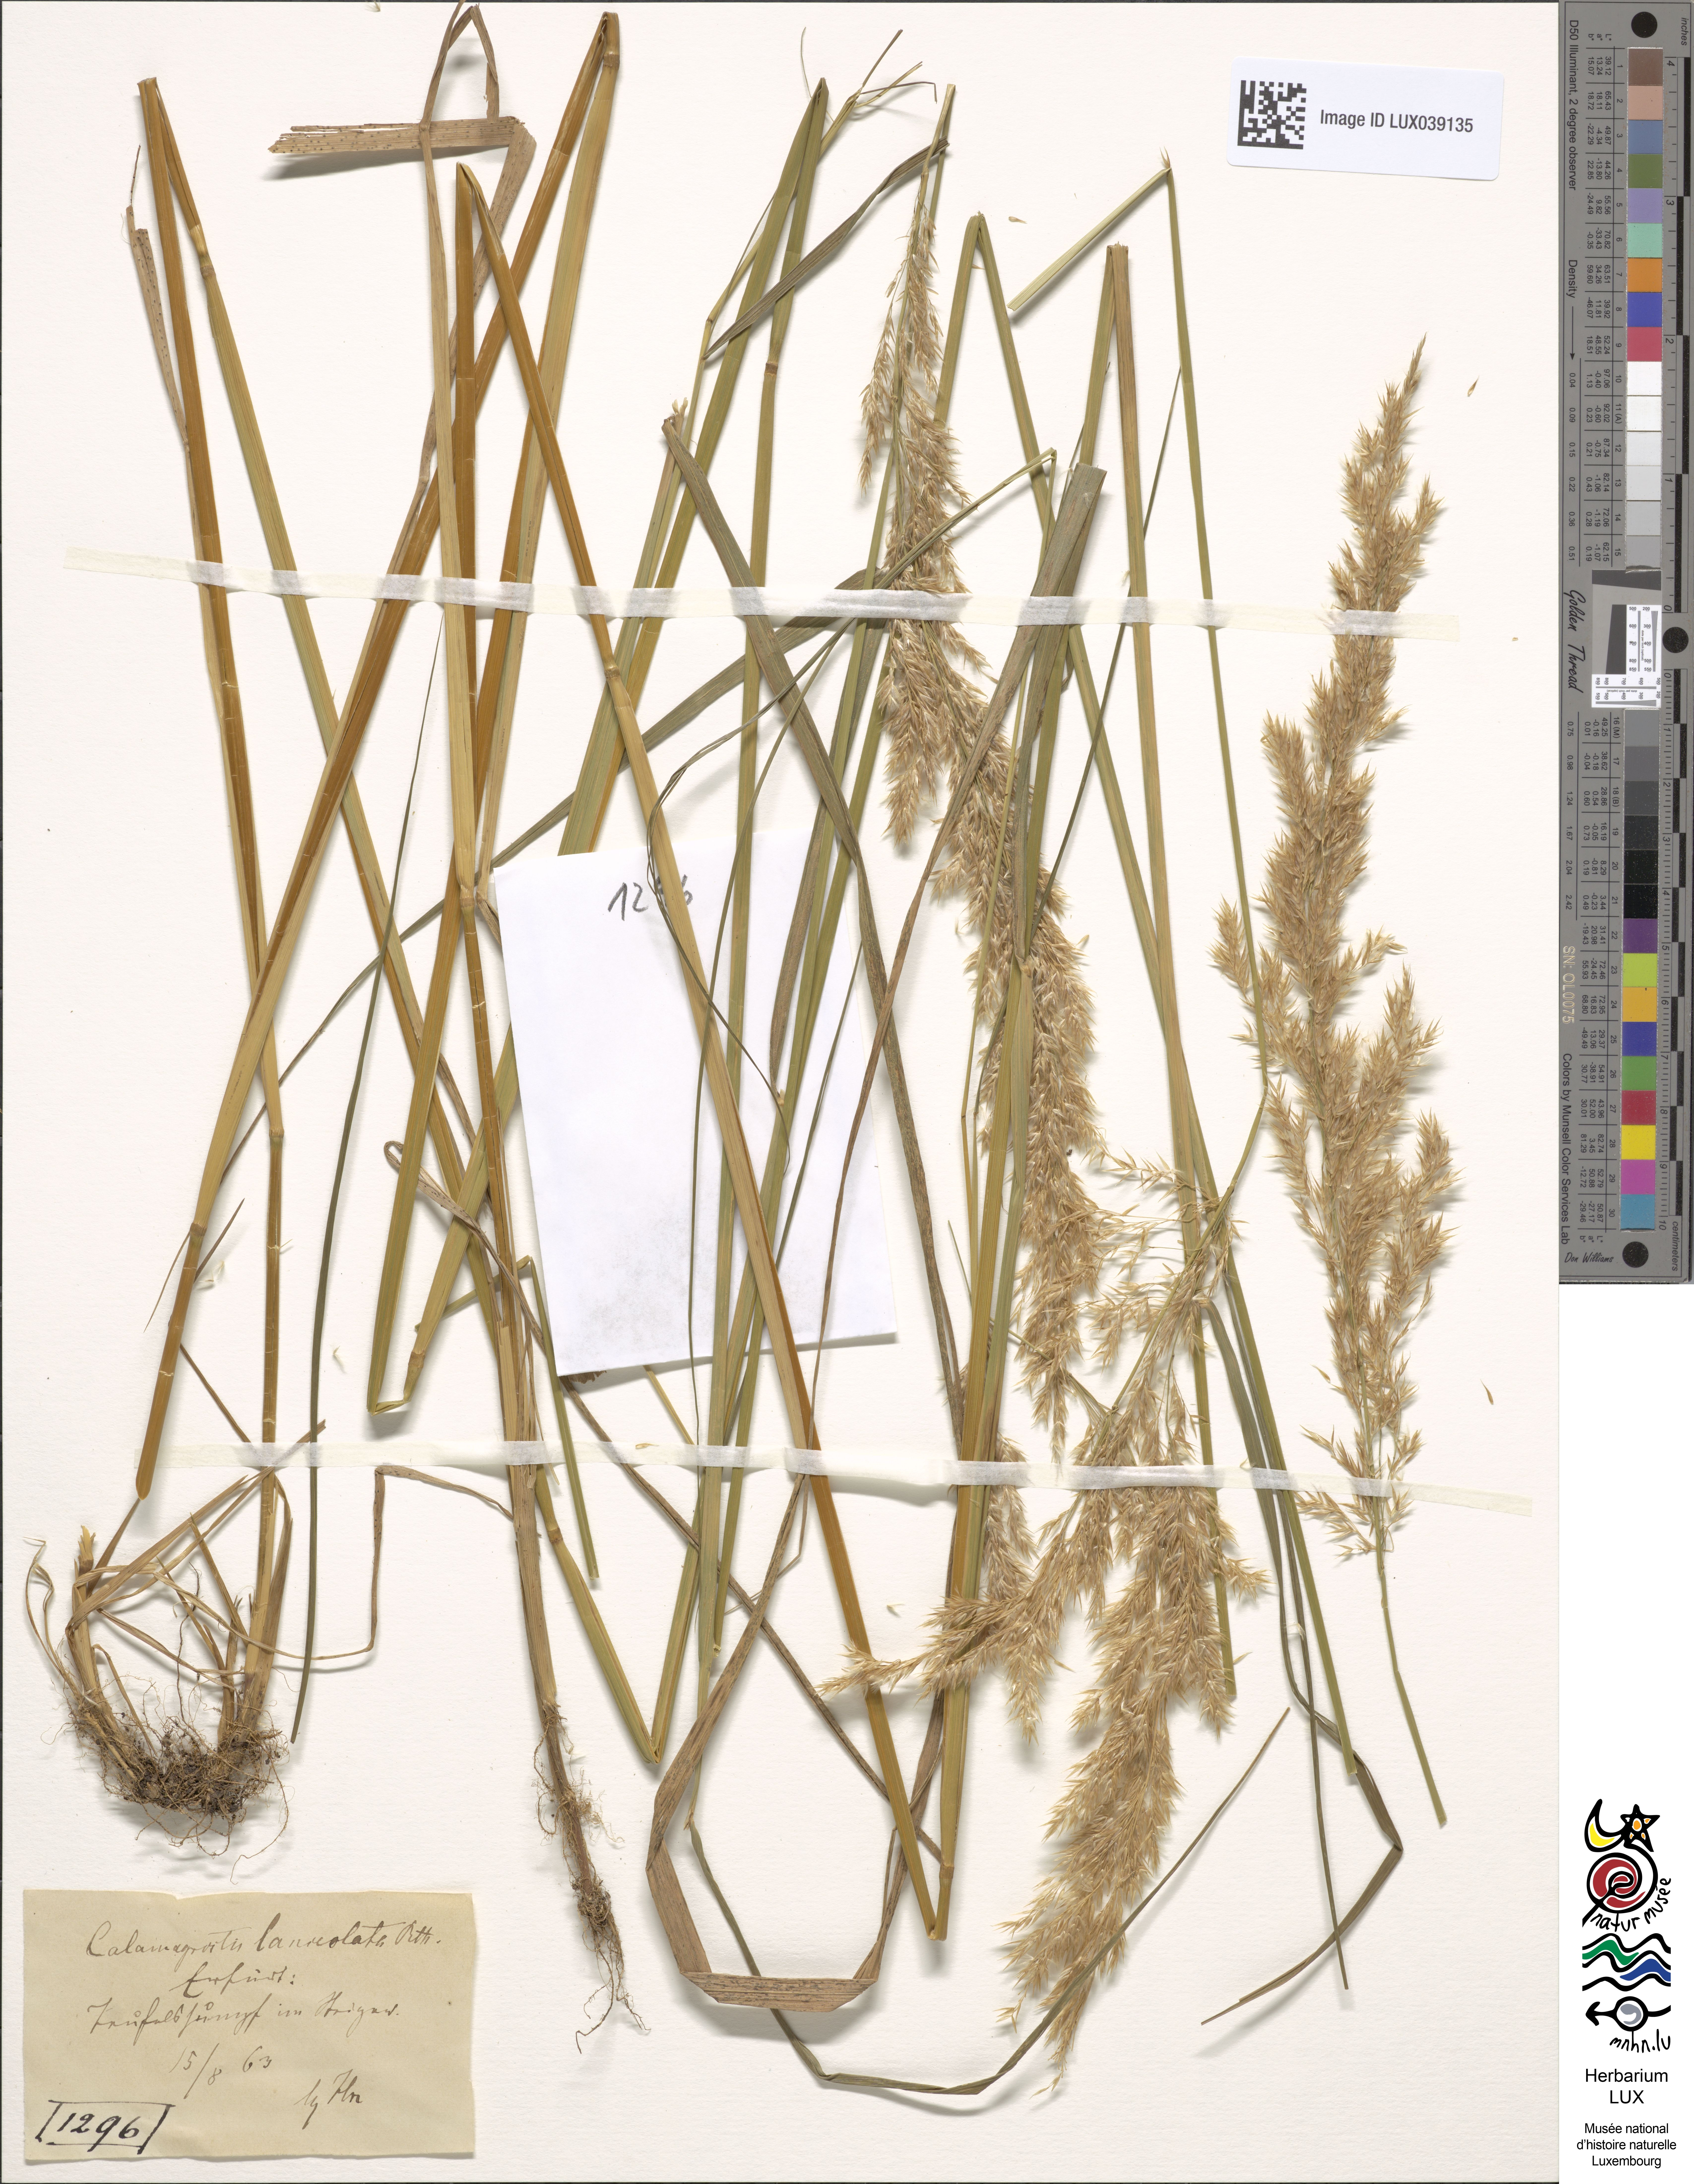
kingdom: Plantae
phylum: Tracheophyta
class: Liliopsida
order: Poales
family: Poaceae
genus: Calamagrostis
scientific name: Calamagrostis canescens
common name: Purple small-reed
